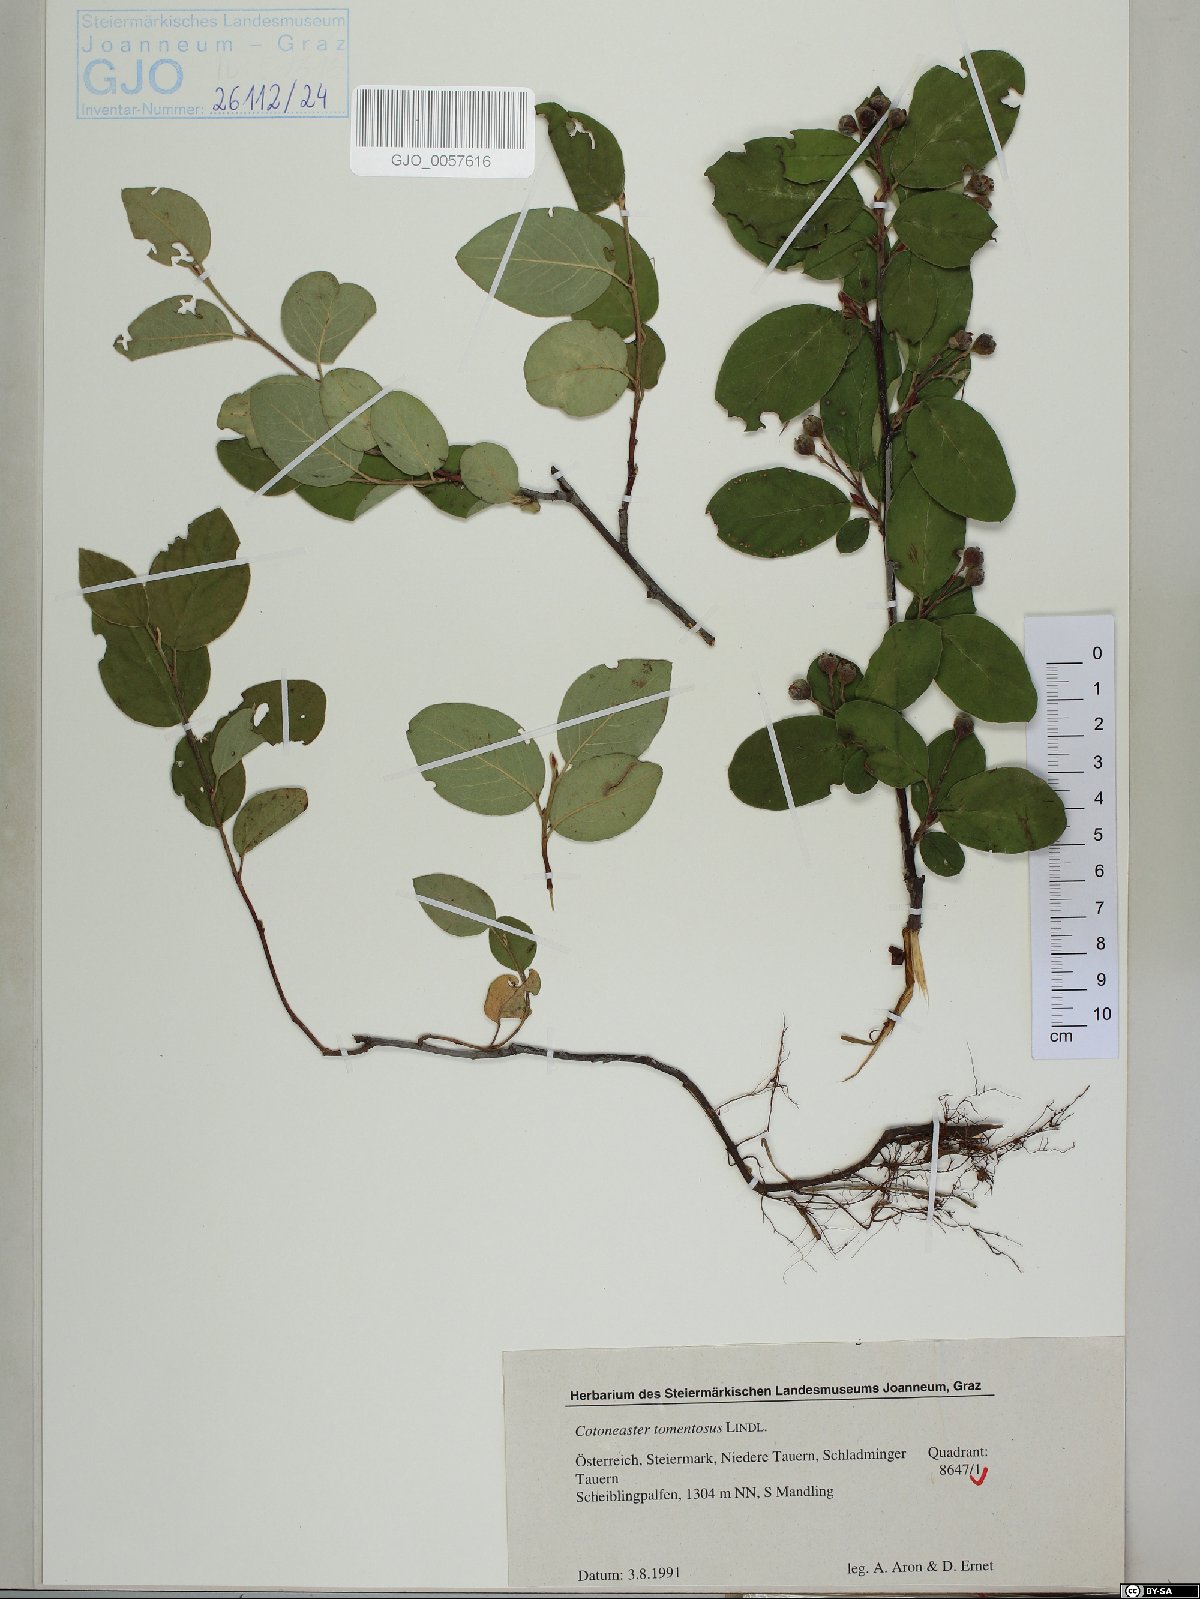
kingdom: Plantae
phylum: Tracheophyta
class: Magnoliopsida
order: Rosales
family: Rosaceae
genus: Cotoneaster
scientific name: Cotoneaster tomentosus
